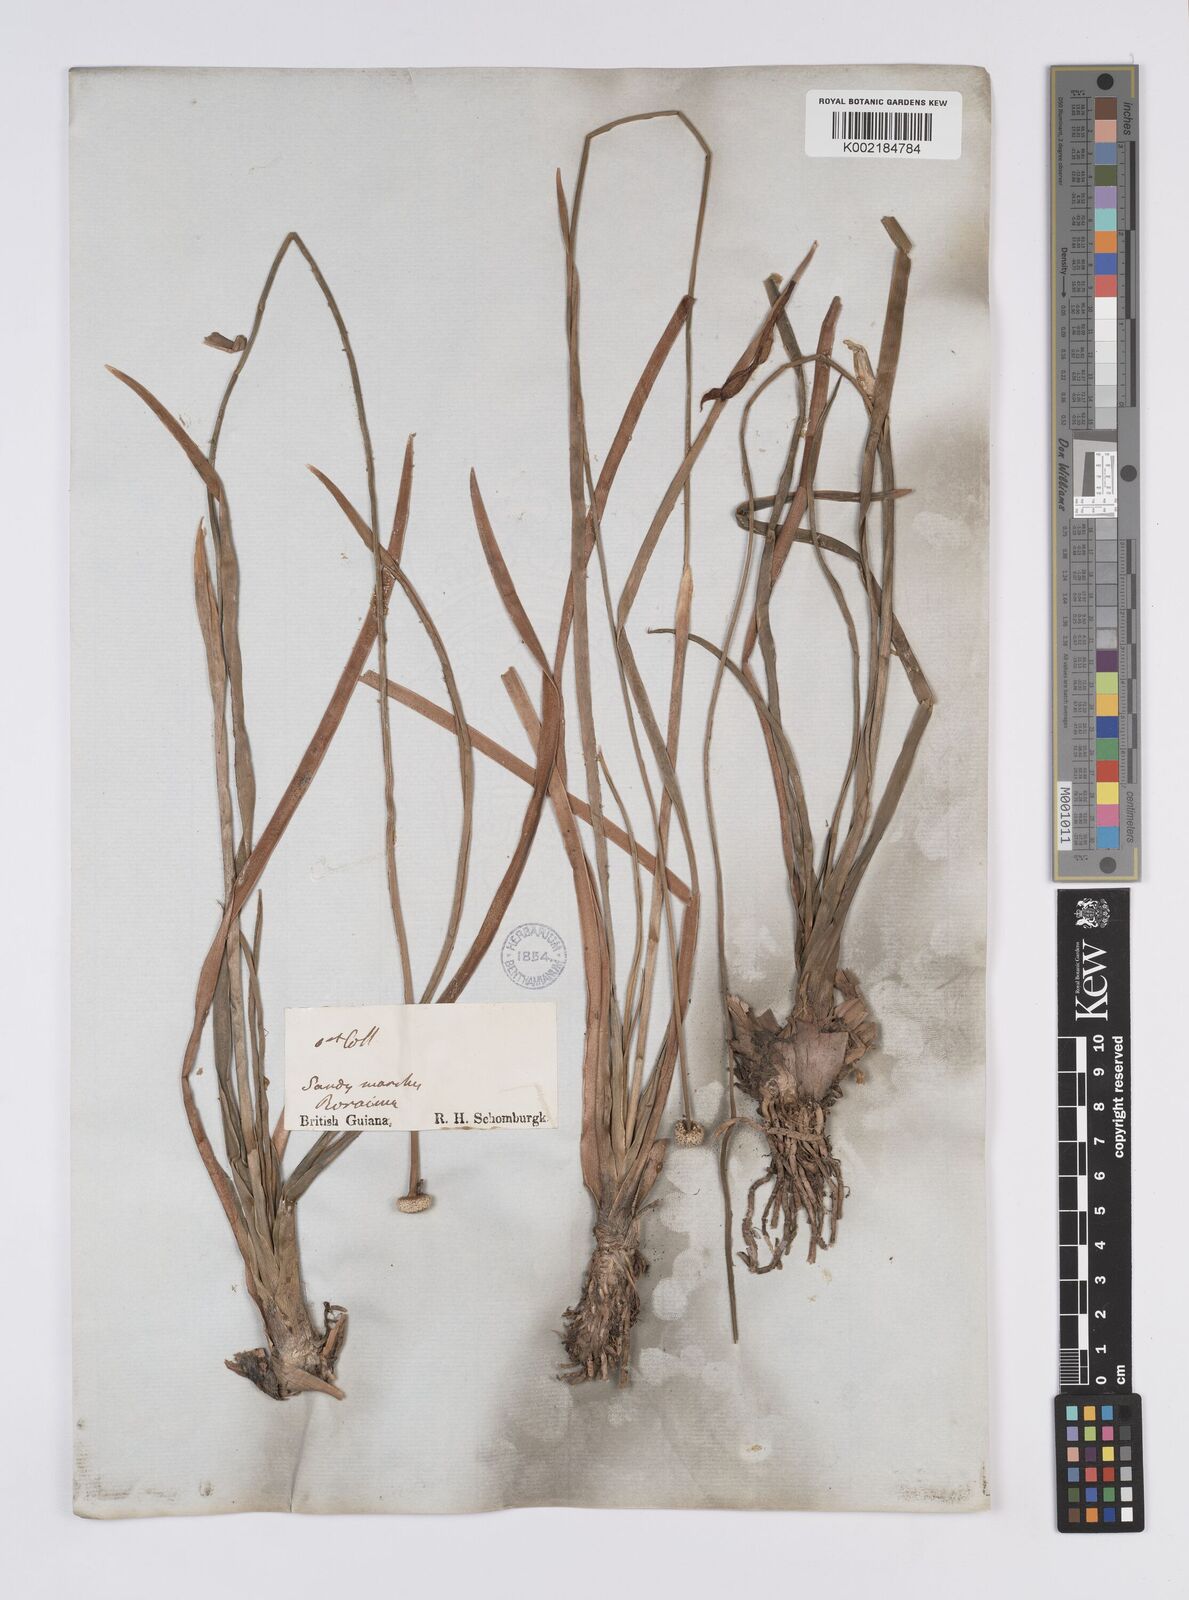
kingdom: Plantae
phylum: Tracheophyta
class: Liliopsida
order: Poales
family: Eriocaulaceae
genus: Eriocaulon
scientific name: Eriocaulon humboldtii
